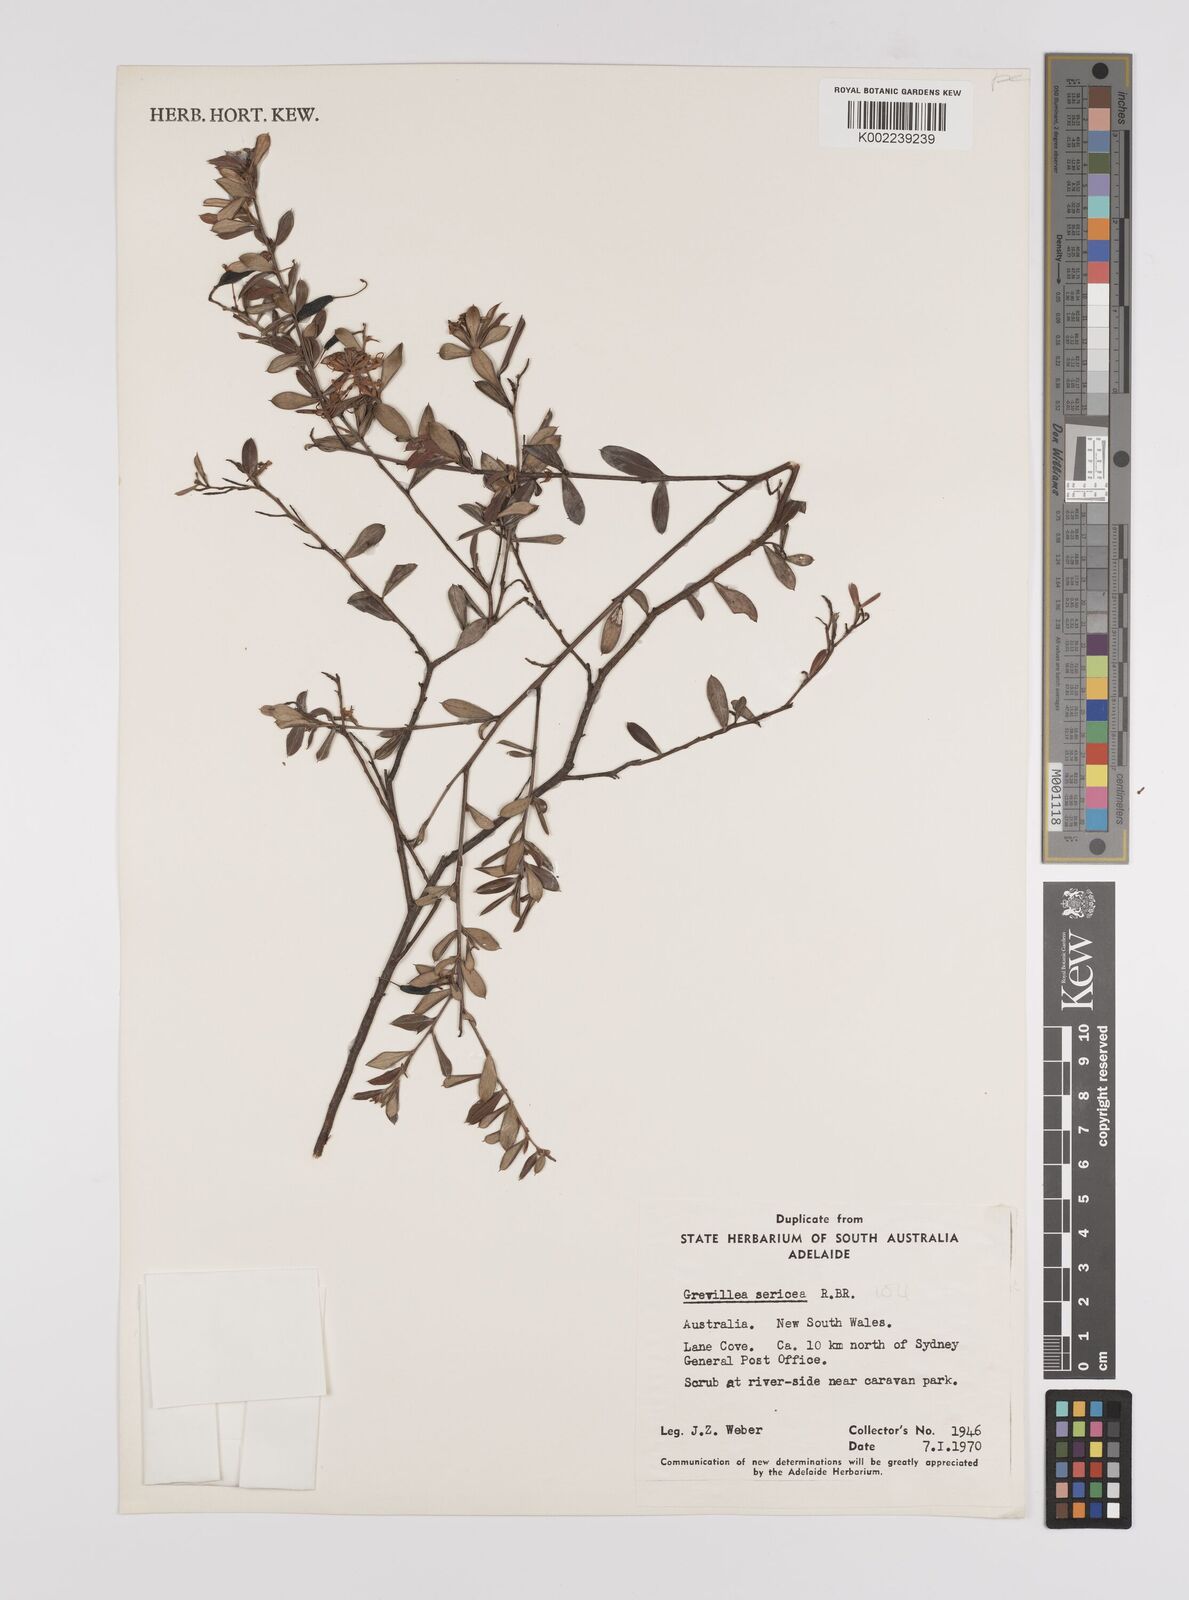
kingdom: Plantae
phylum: Tracheophyta
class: Magnoliopsida
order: Proteales
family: Proteaceae
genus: Grevillea
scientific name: Grevillea sericea
